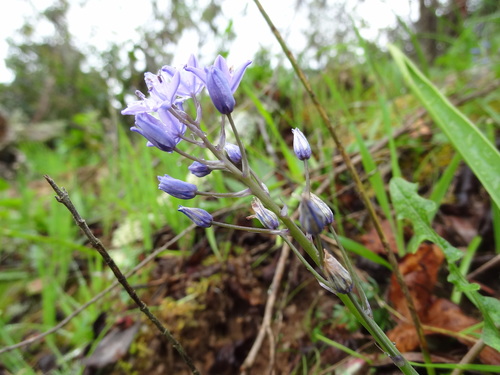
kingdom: Plantae
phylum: Tracheophyta
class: Liliopsida
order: Asparagales
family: Asparagaceae
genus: Scilla
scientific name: Scilla monophyllos
